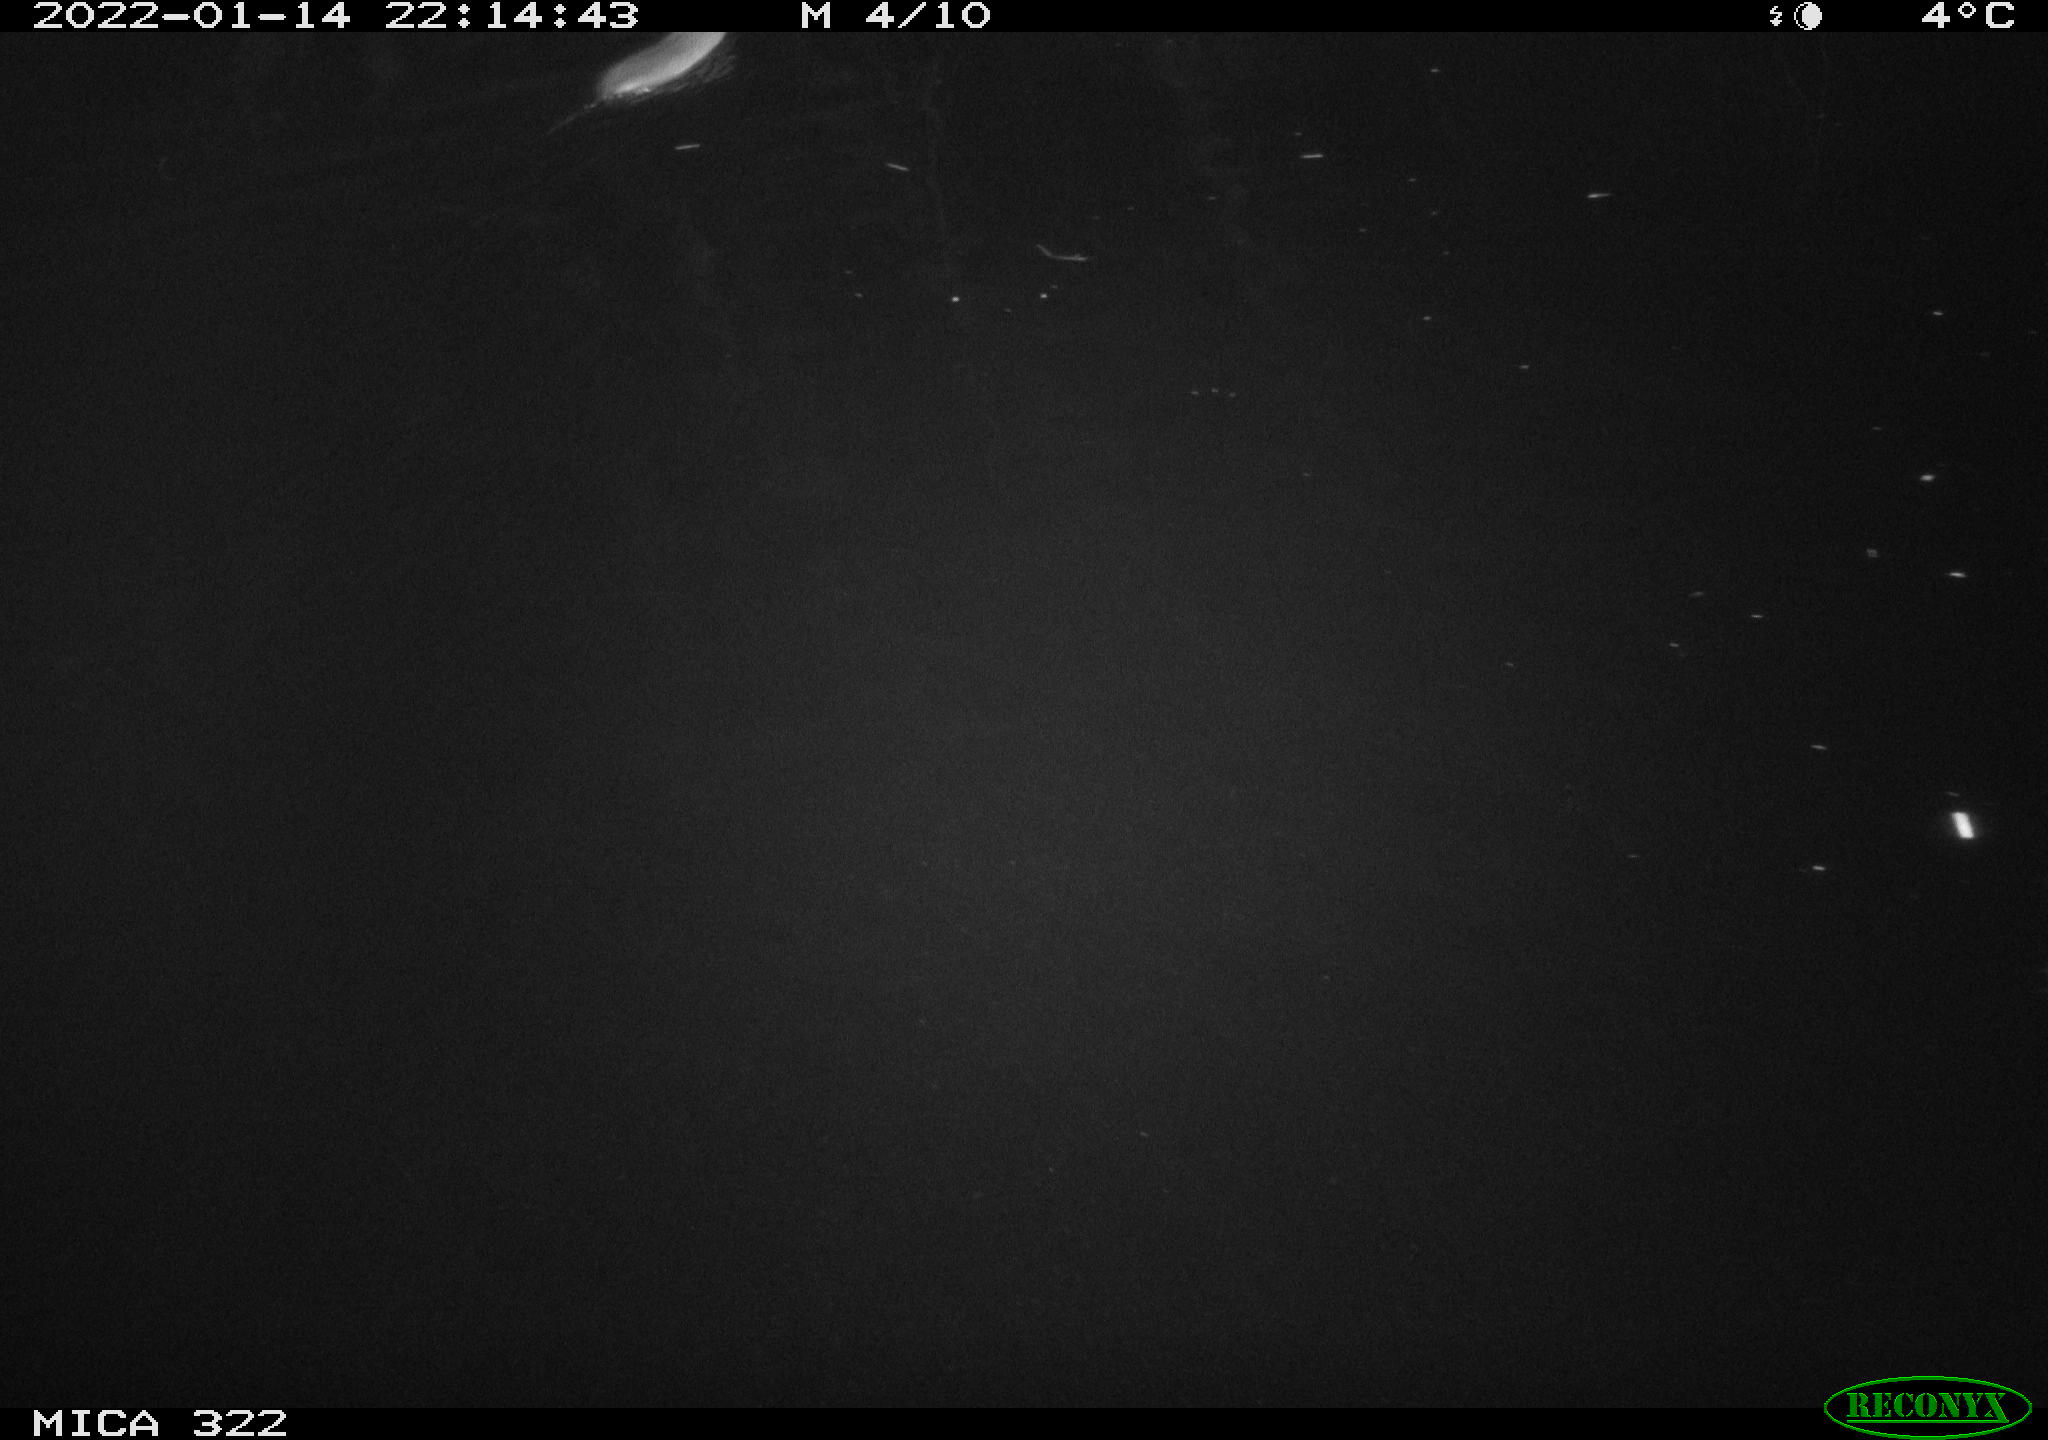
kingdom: Animalia
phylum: Chordata
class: Mammalia
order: Rodentia
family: Muridae
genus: Rattus
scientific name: Rattus norvegicus
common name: Brown rat
